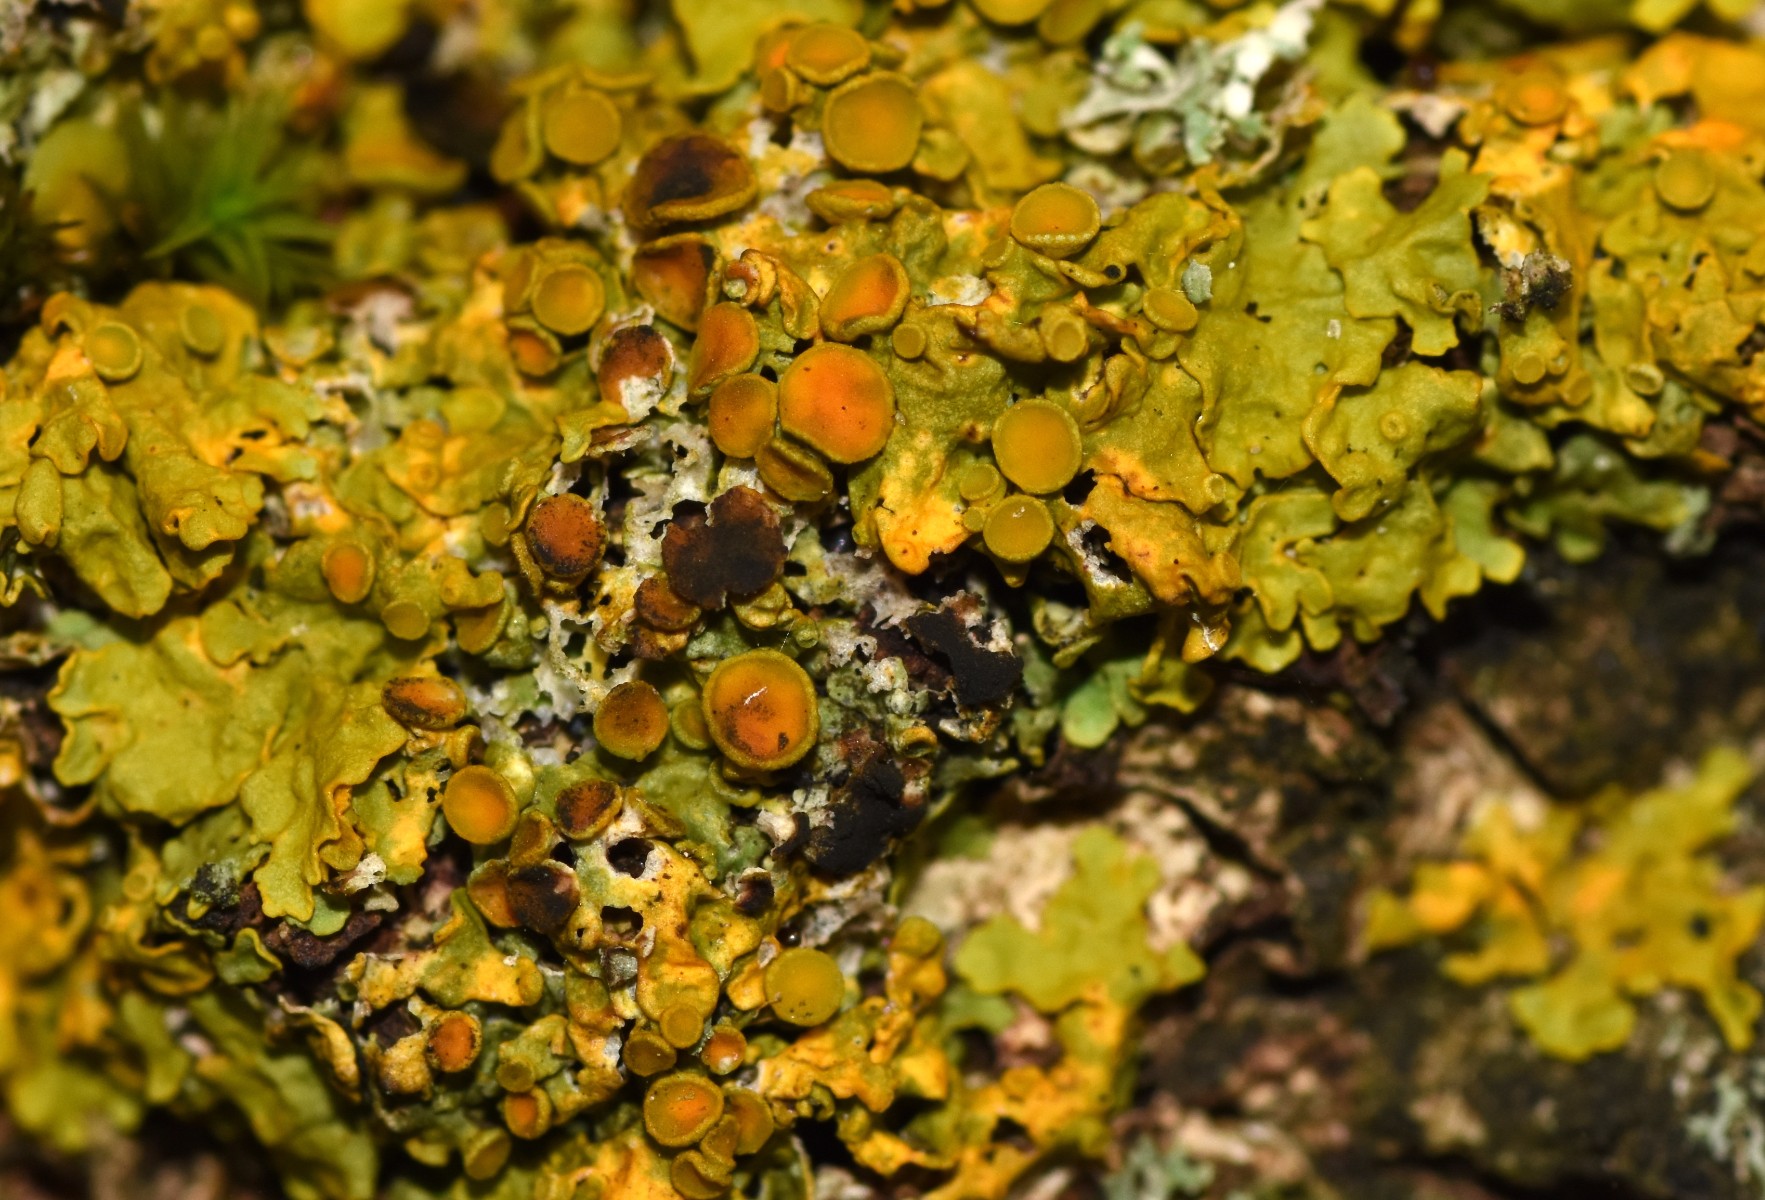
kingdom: Fungi
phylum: Ascomycota
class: Dothideomycetes
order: Mycosphaerellales
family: Teratosphaeriaceae
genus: Xanthoriicola
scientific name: Xanthoriicola physciae
